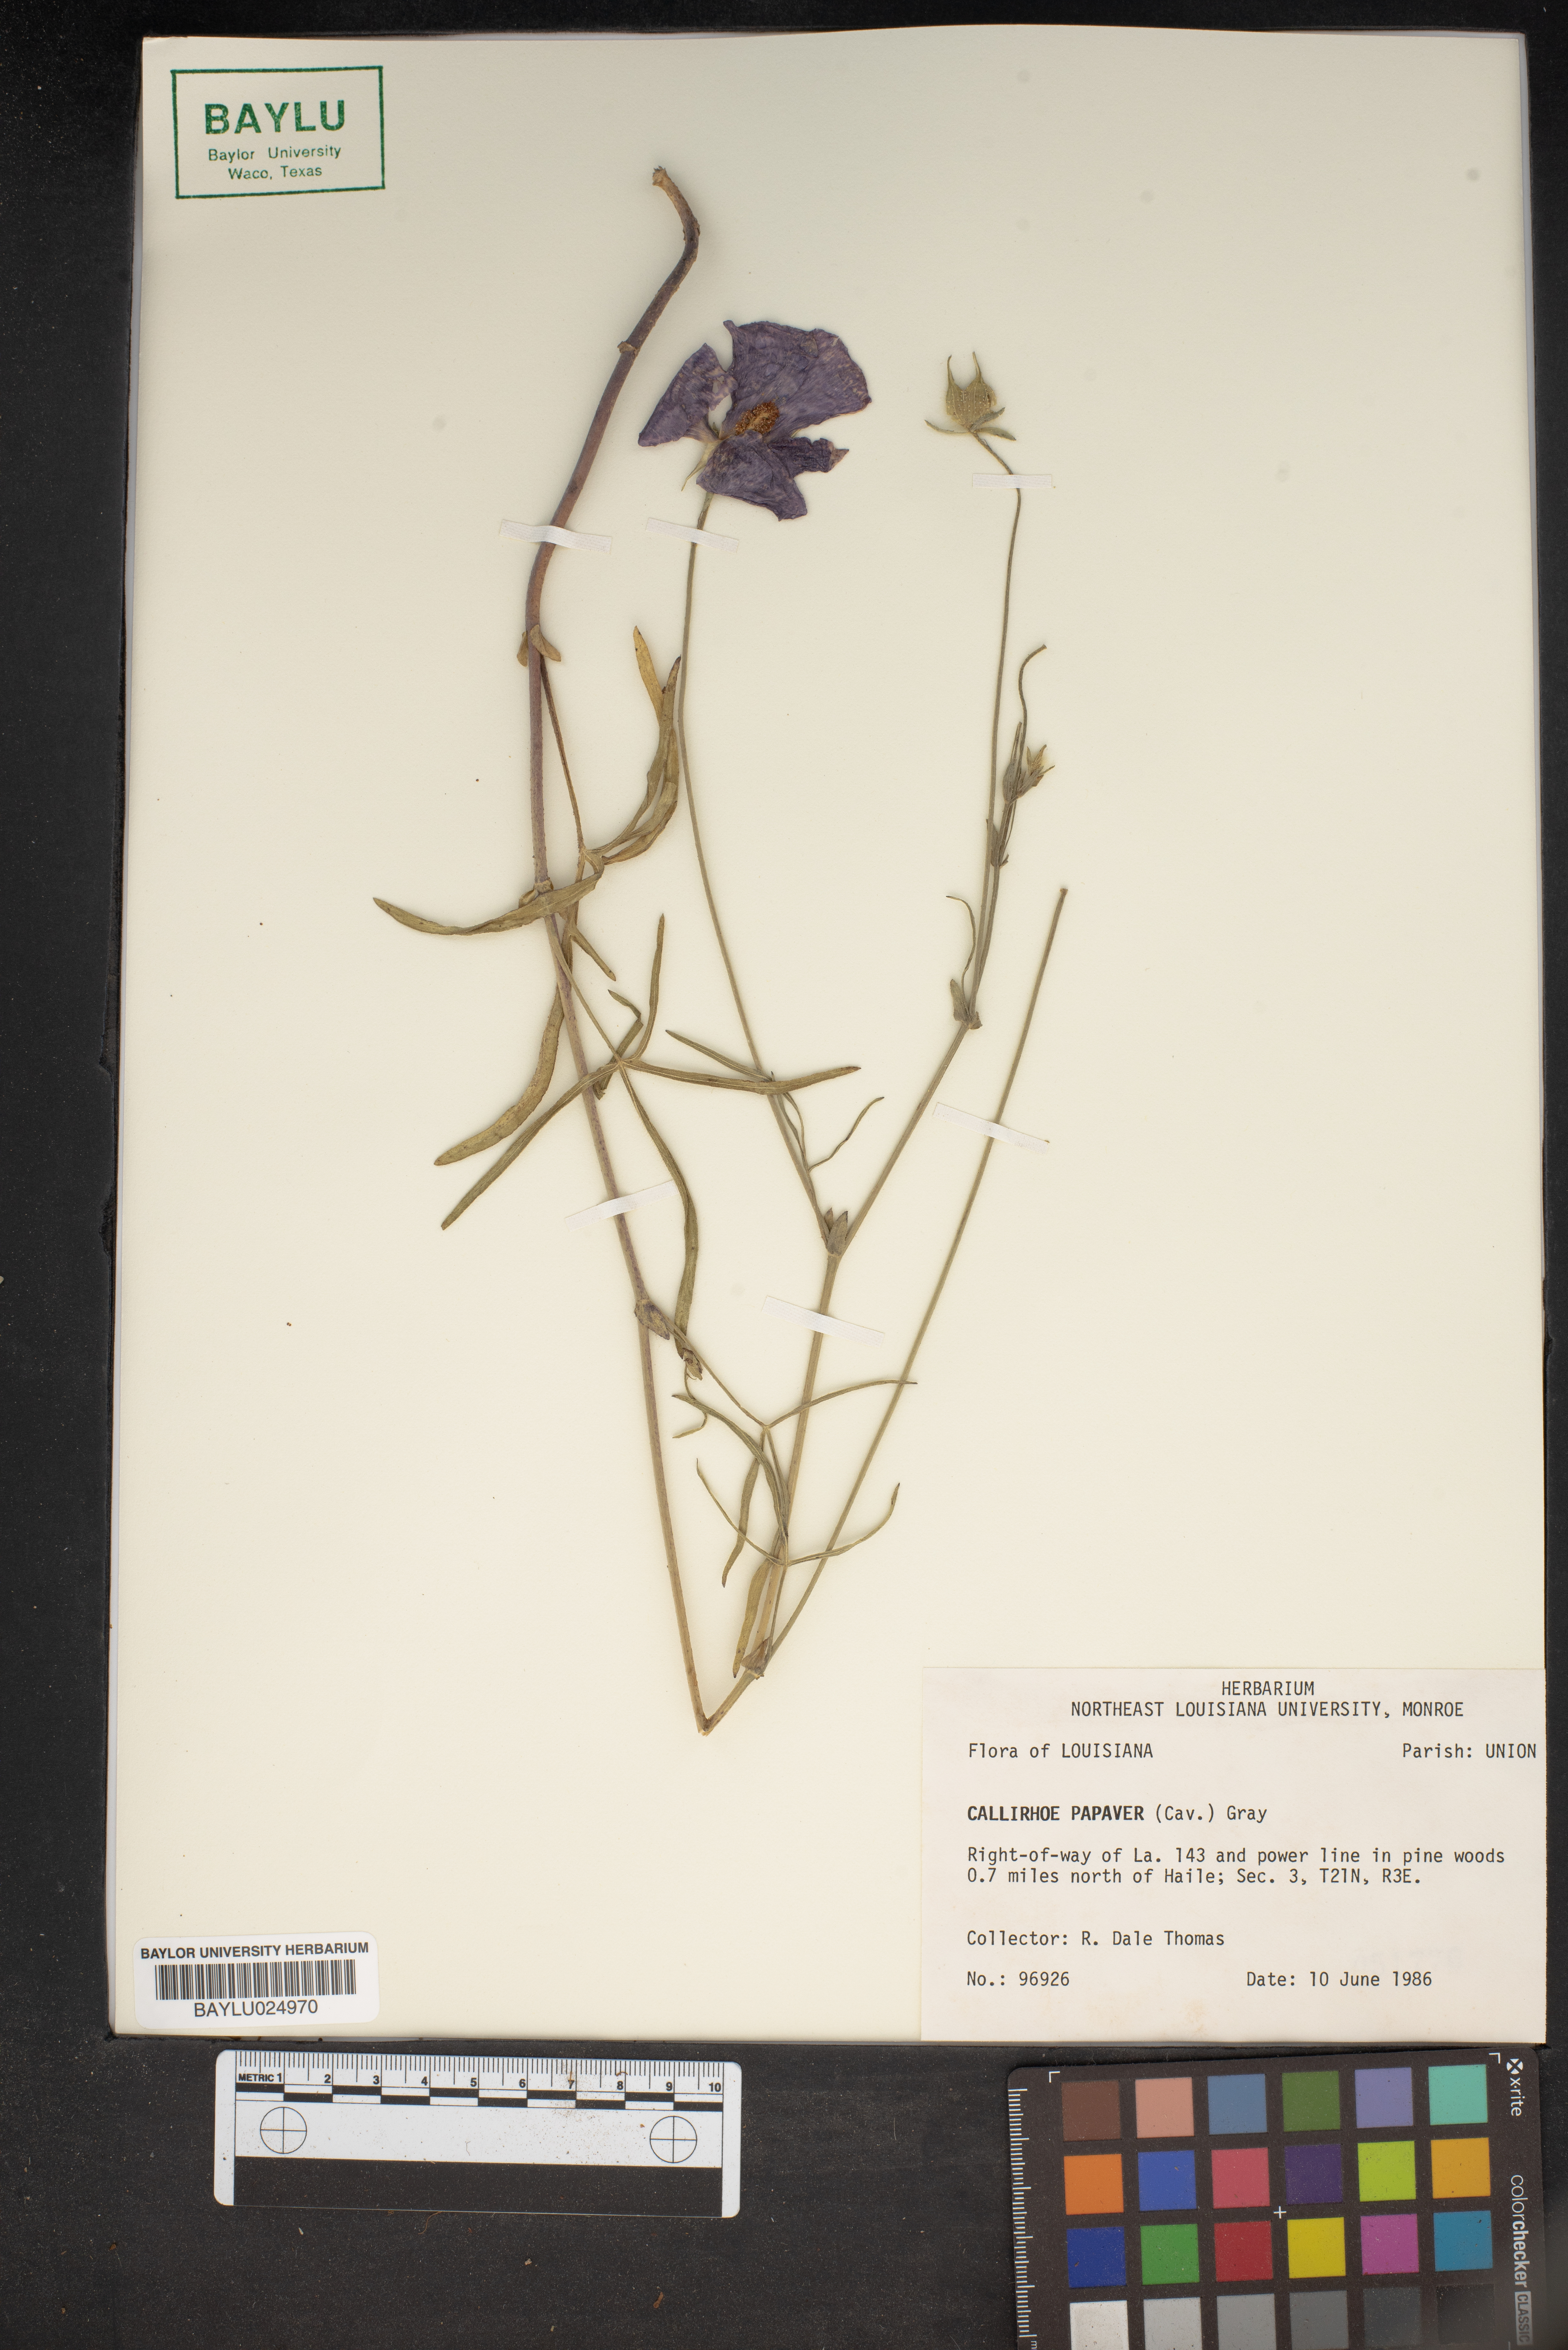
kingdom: Plantae
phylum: Tracheophyta
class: Magnoliopsida
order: Malvales
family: Malvaceae
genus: Callirhoe
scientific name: Callirhoe papaver
